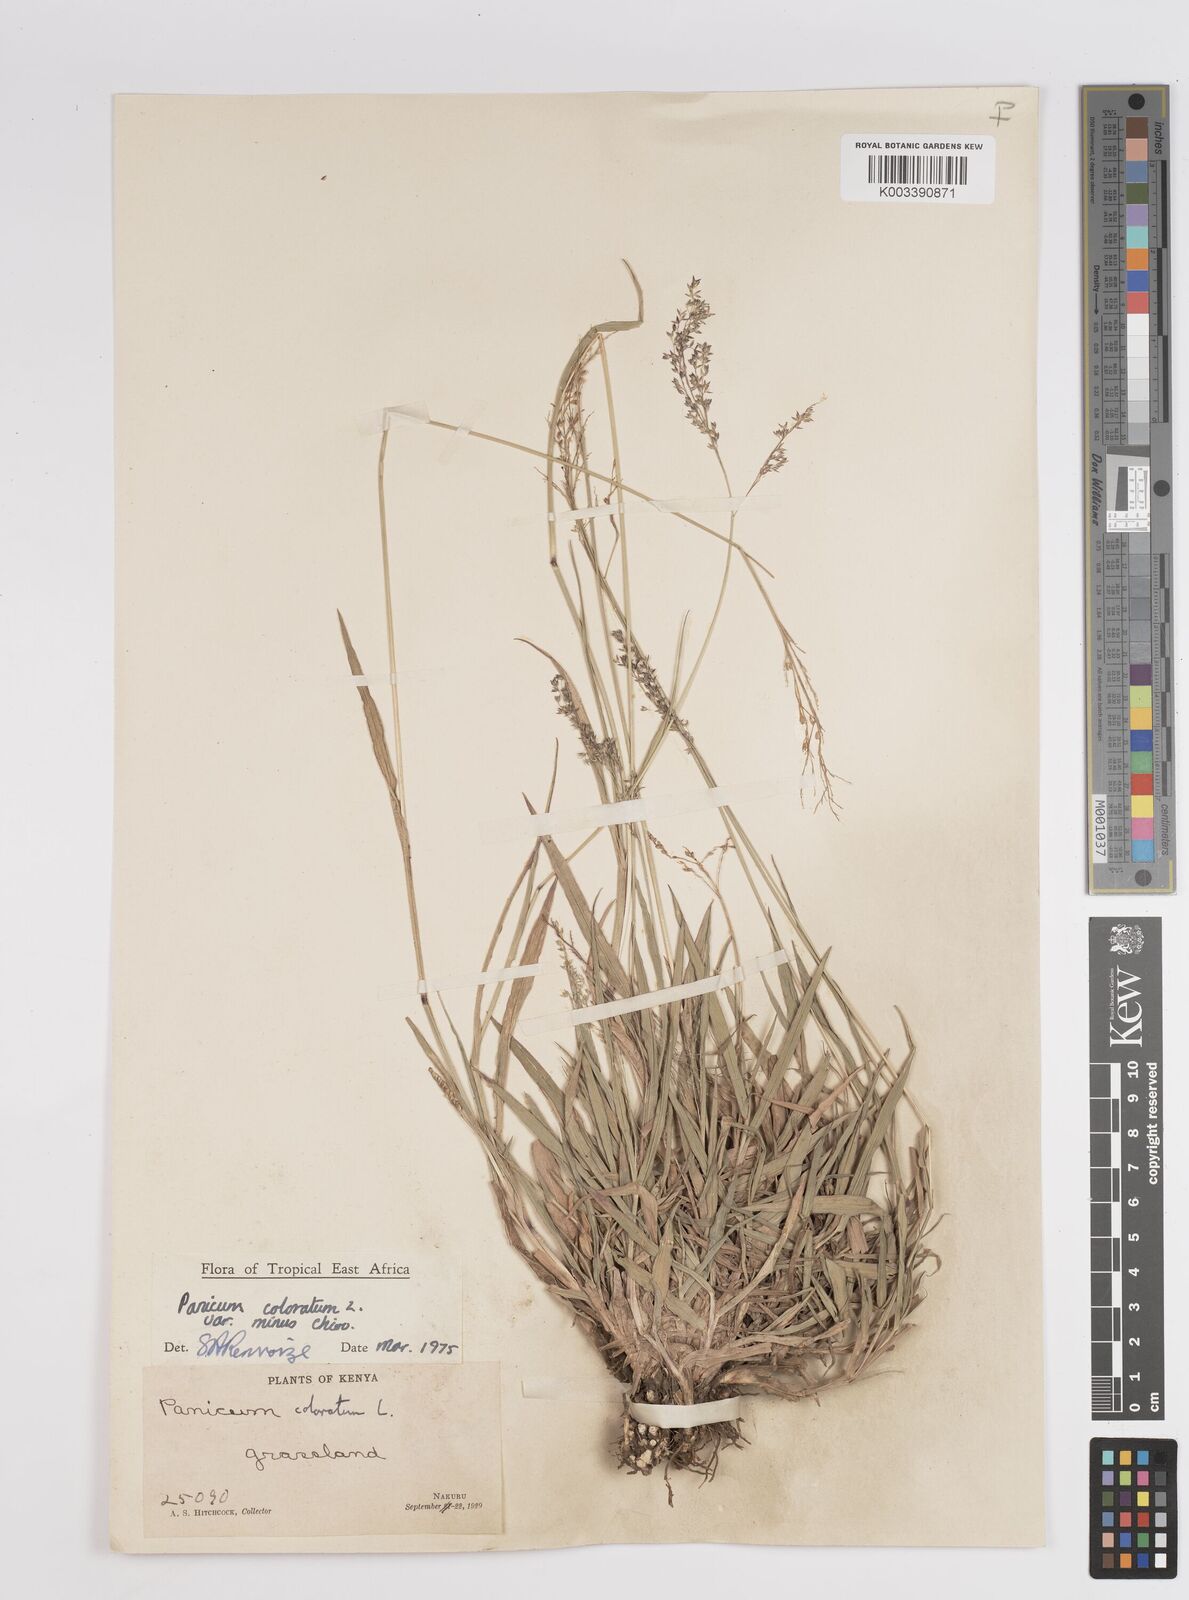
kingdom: Plantae
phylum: Tracheophyta
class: Liliopsida
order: Poales
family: Poaceae
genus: Panicum
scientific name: Panicum coloratum
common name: Kleingrass
